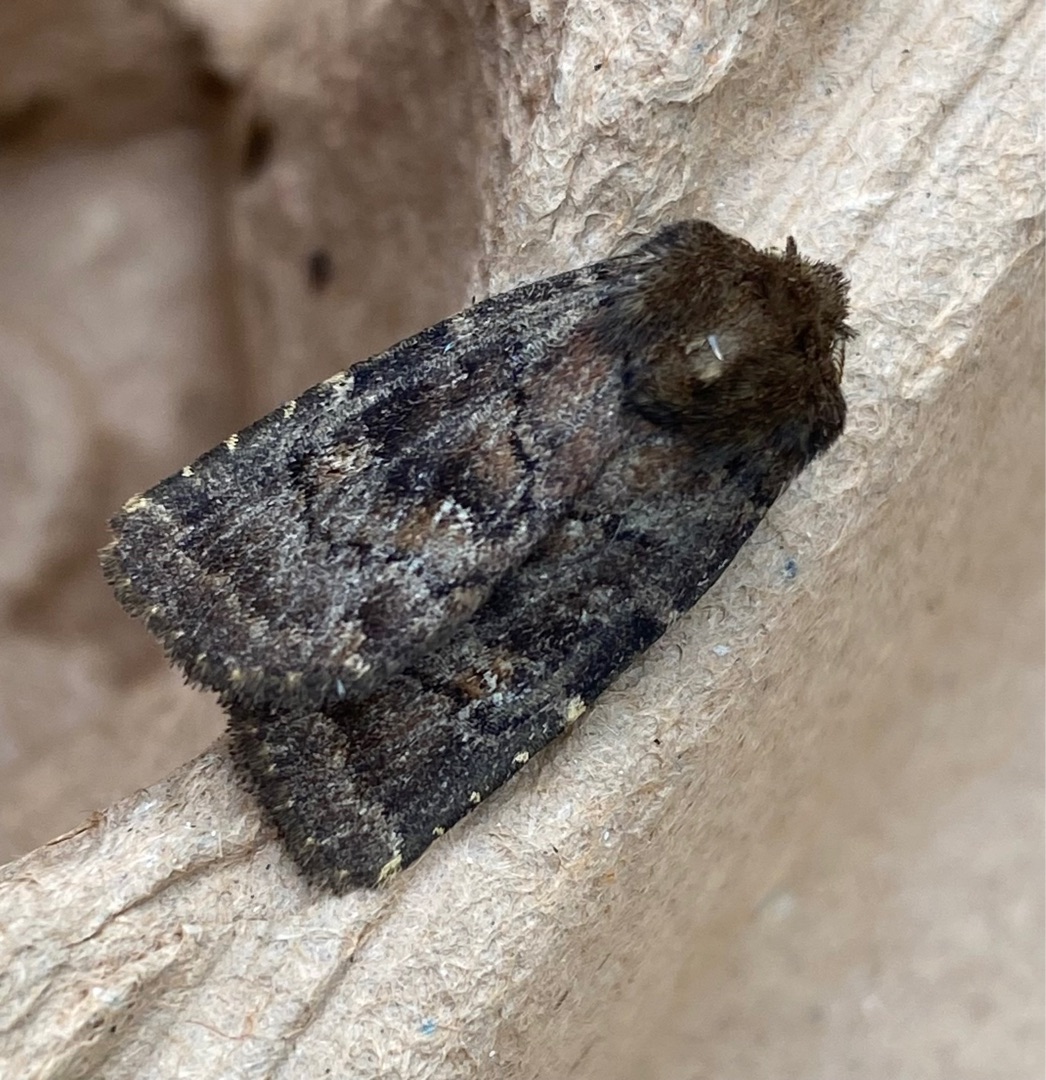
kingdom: Animalia
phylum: Arthropoda
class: Insecta
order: Lepidoptera
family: Noctuidae
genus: Charanyca
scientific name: Charanyca ferruginea
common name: Rustugle
